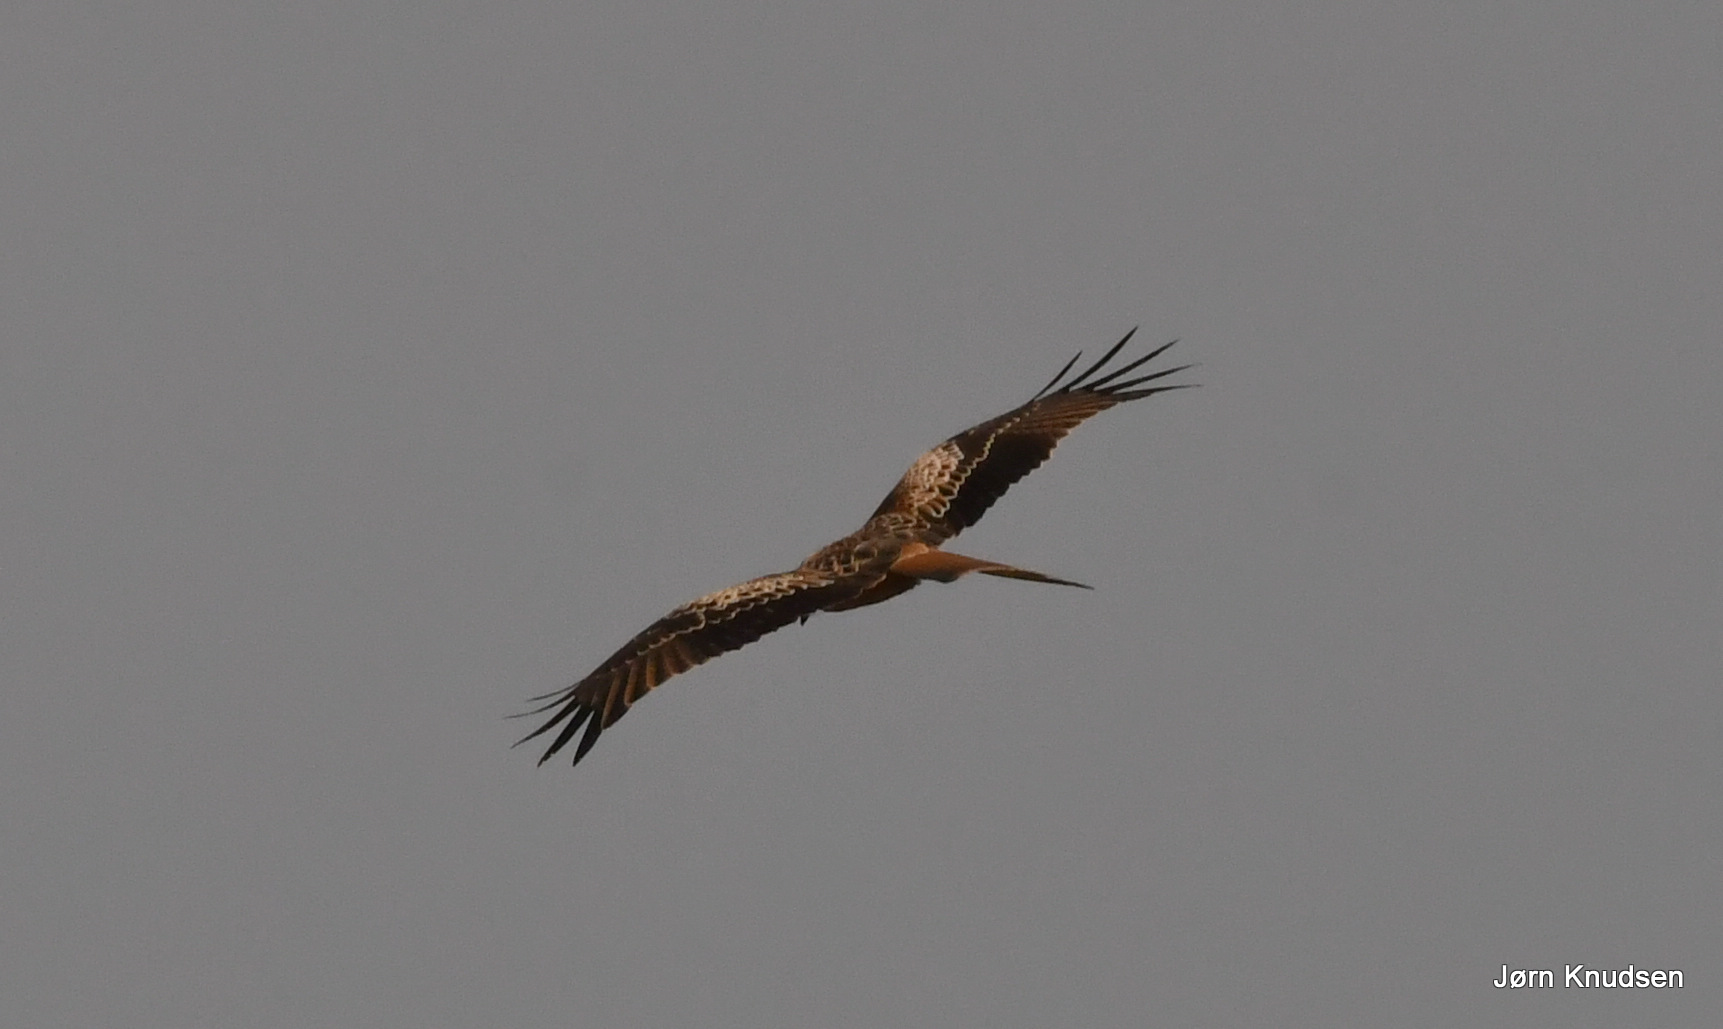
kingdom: Animalia
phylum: Chordata
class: Aves
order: Accipitriformes
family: Accipitridae
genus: Milvus
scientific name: Milvus milvus
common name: Rød glente
